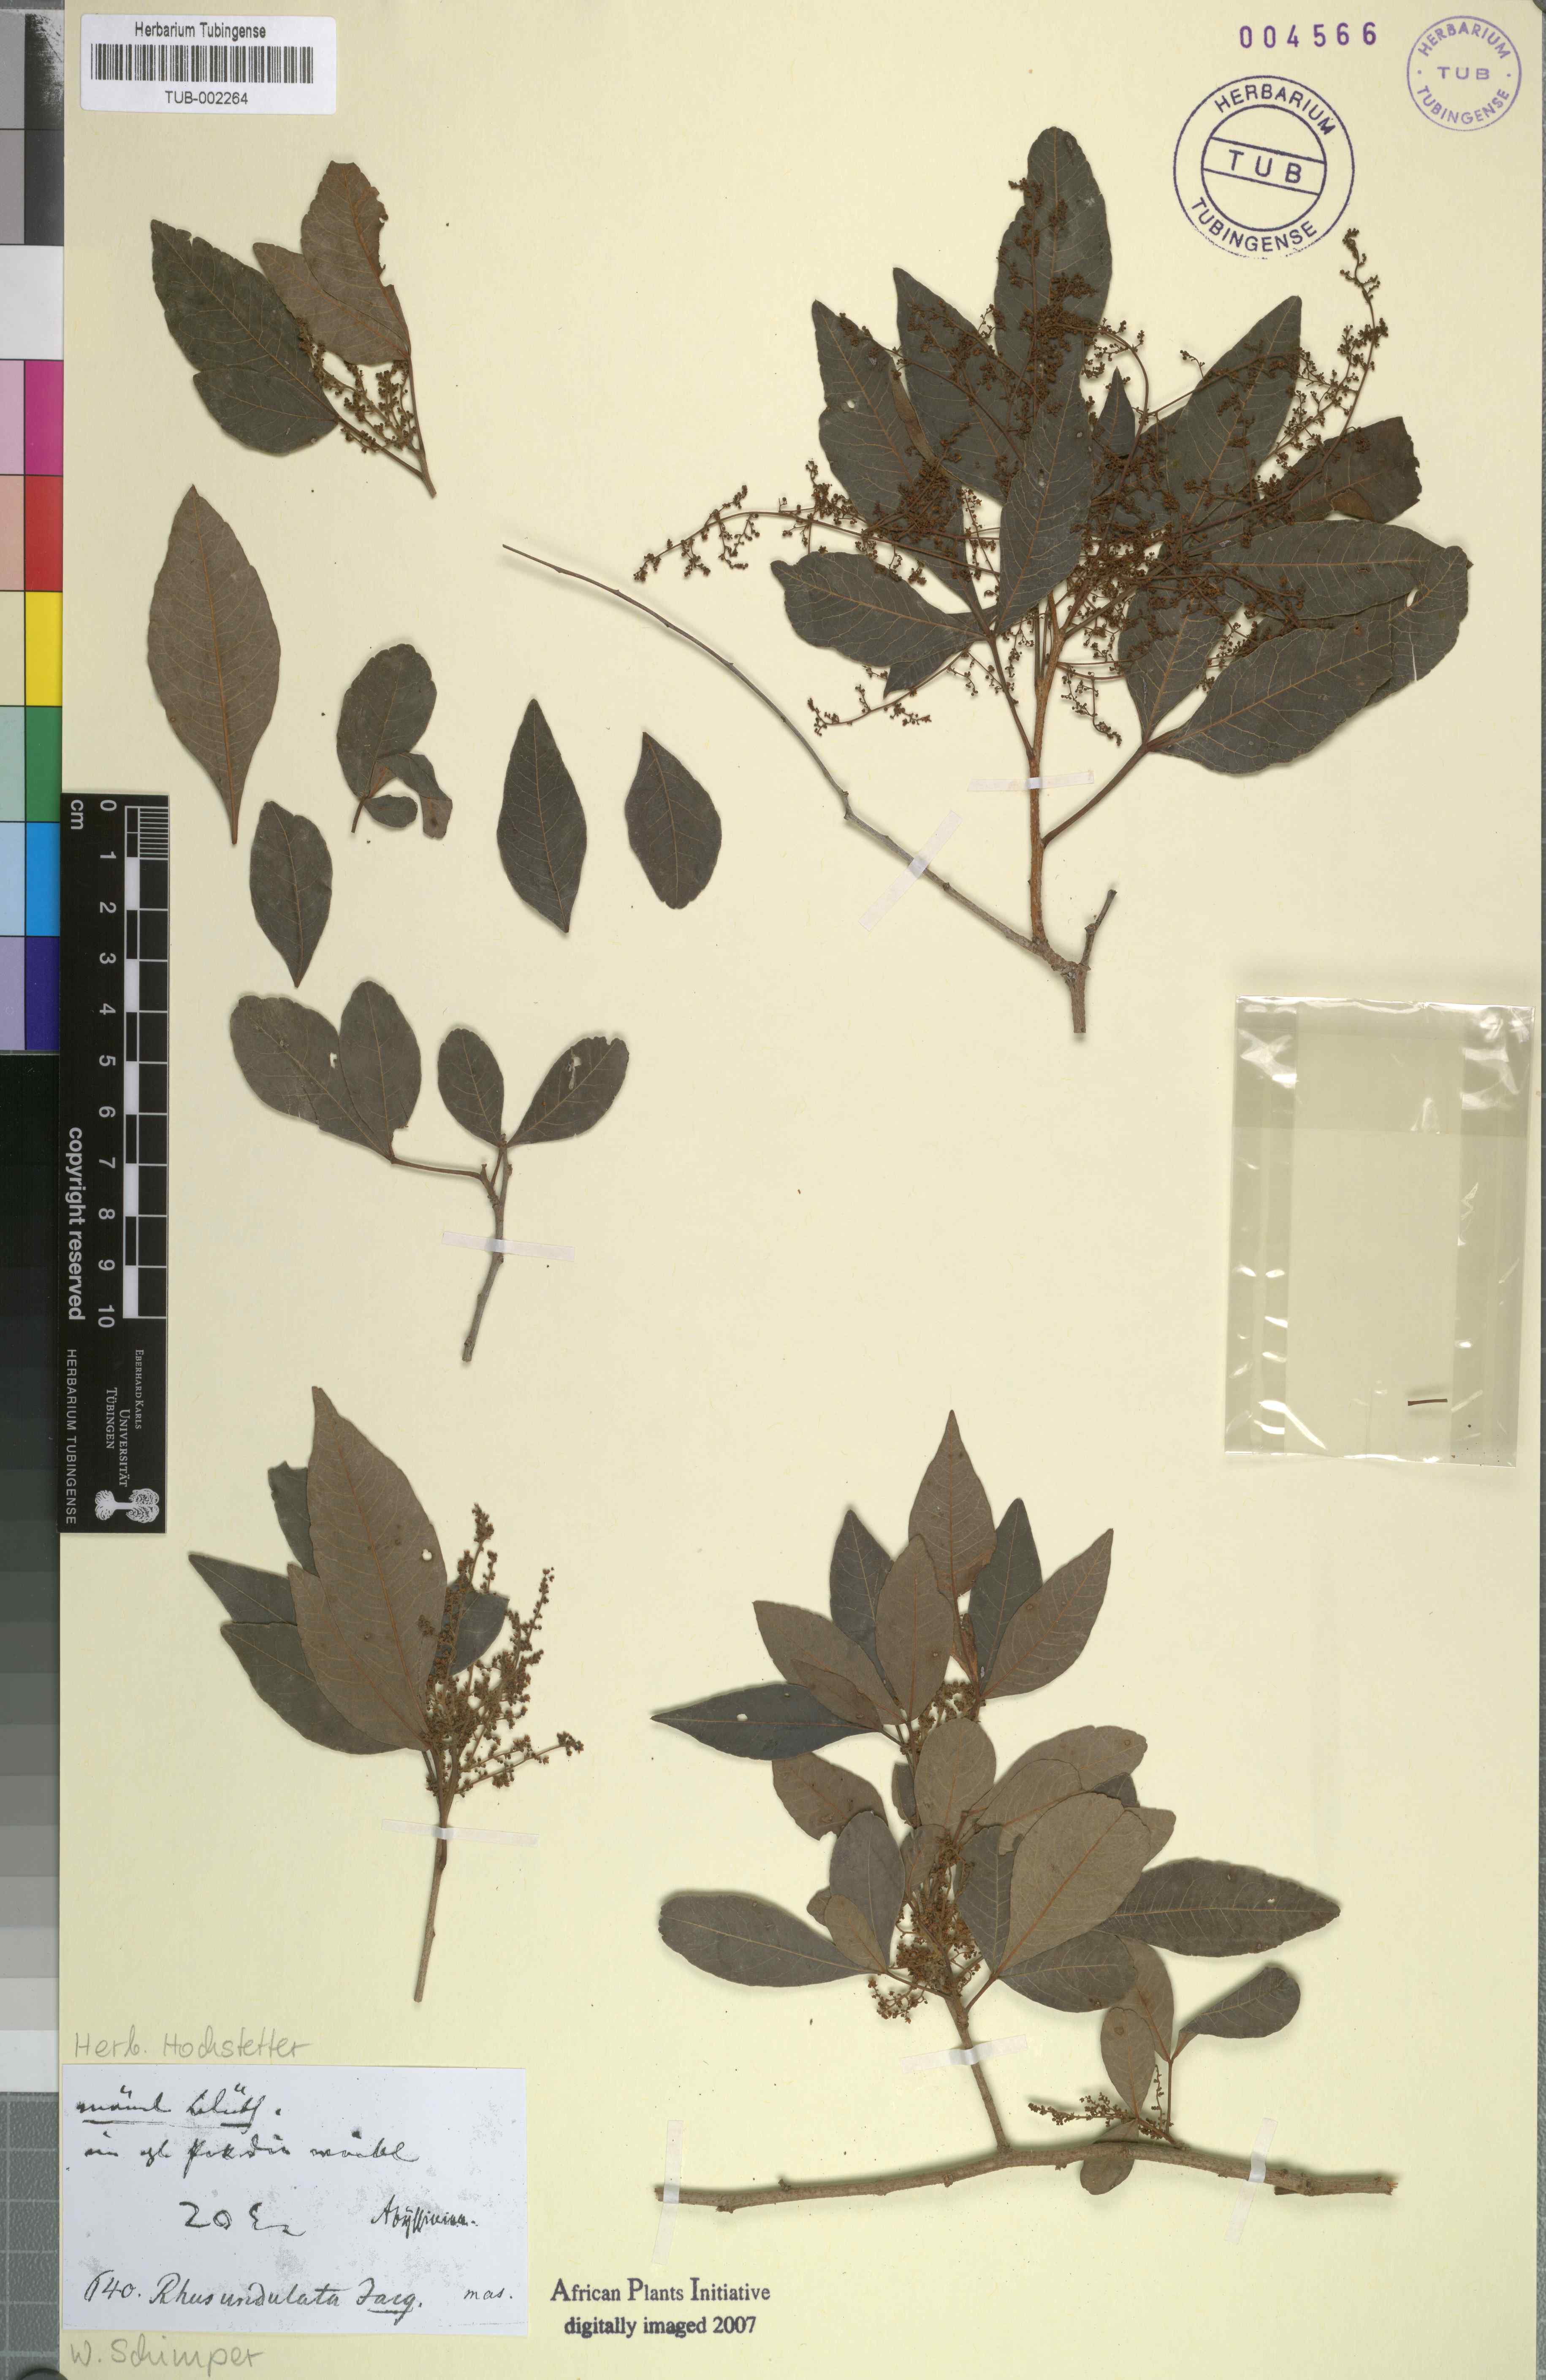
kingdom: Plantae
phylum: Tracheophyta
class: Magnoliopsida
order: Sapindales
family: Anacardiaceae
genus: Searsia
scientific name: Searsia undulata
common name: Namaqua kunibush
